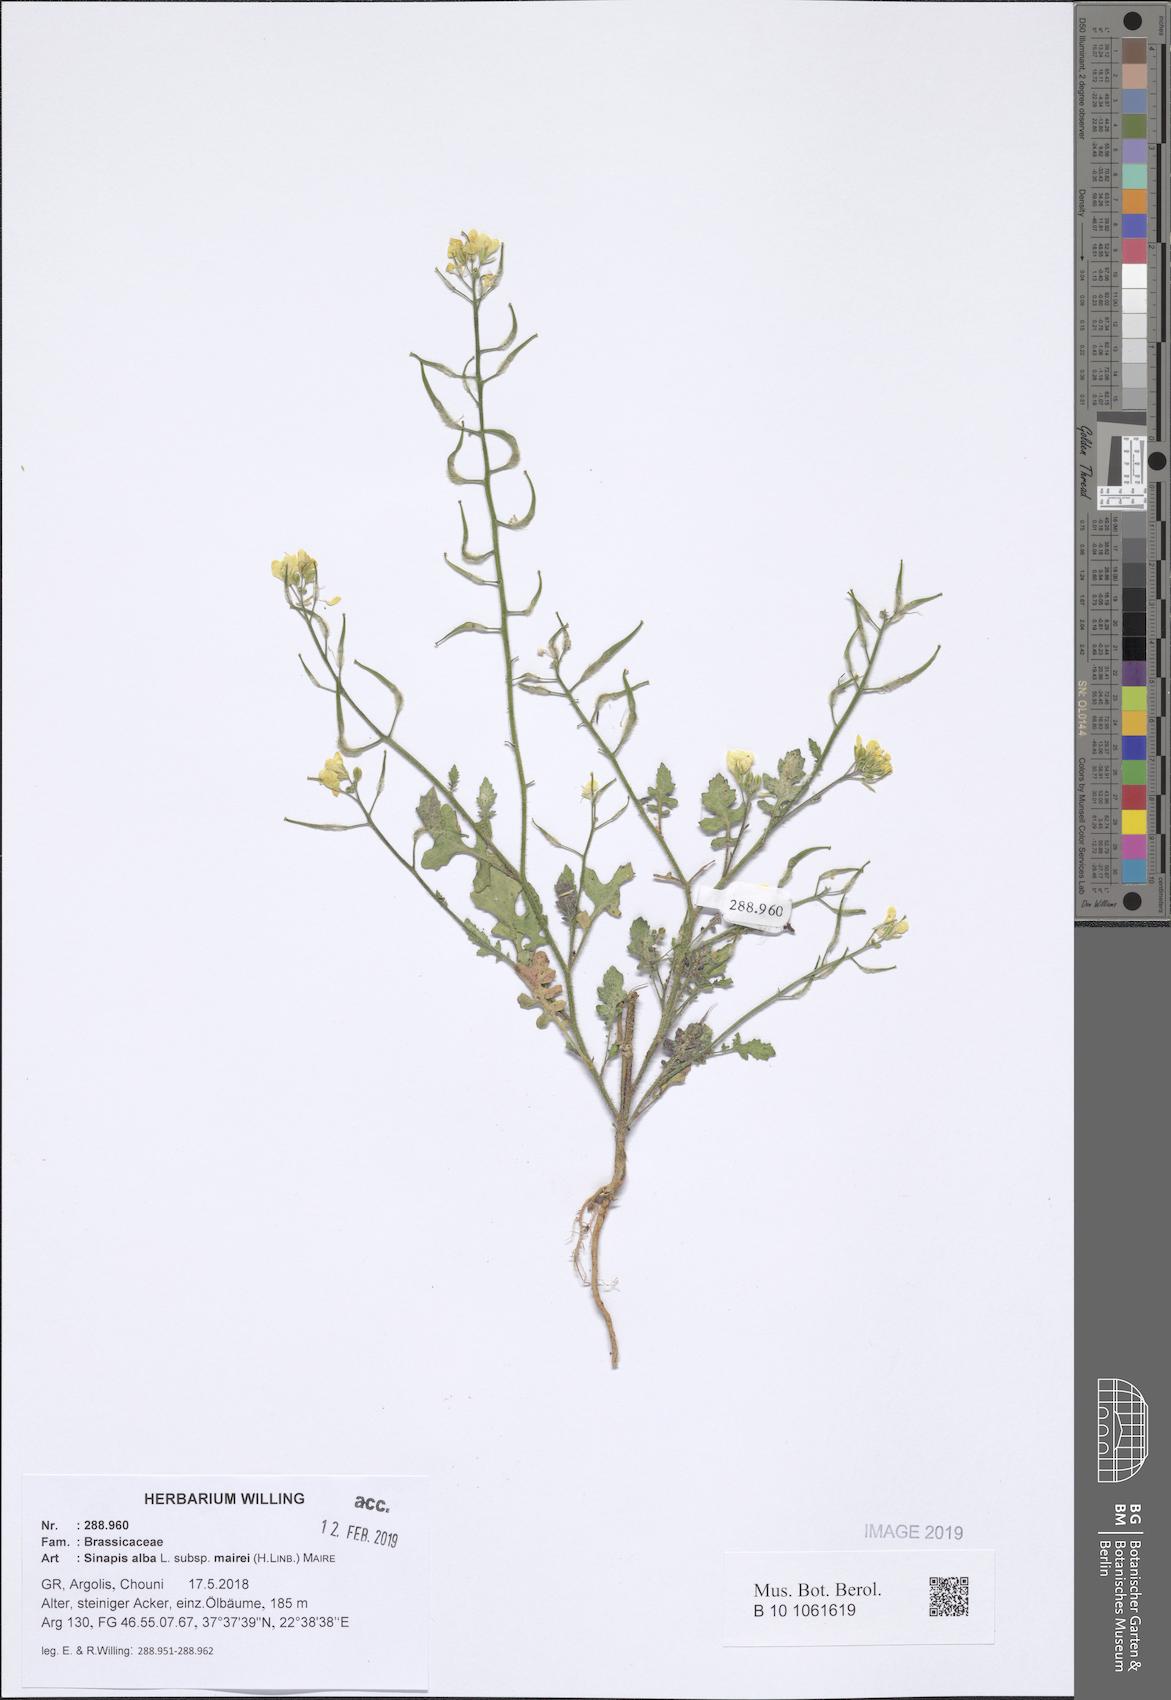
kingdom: Plantae
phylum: Tracheophyta
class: Magnoliopsida
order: Brassicales
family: Brassicaceae
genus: Sinapis
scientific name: Sinapis alba
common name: White mustard
